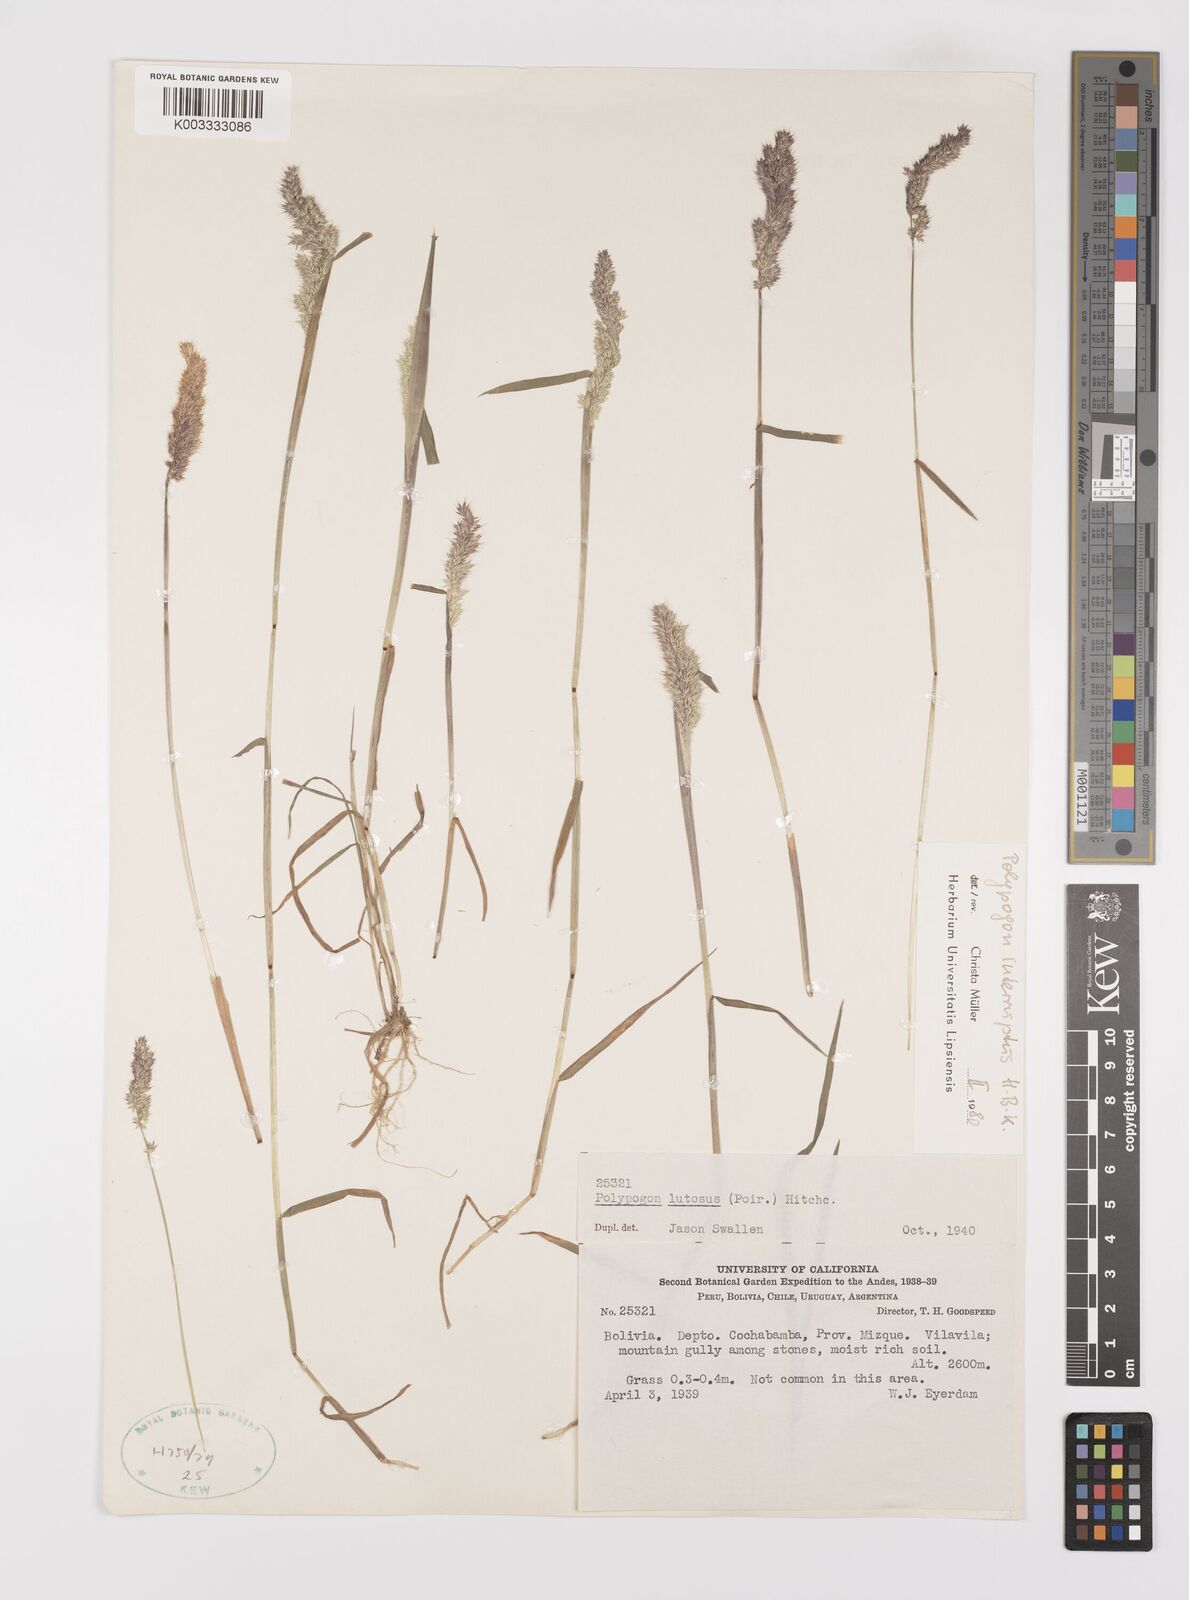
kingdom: Plantae
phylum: Tracheophyta
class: Liliopsida
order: Poales
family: Poaceae
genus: Polypogon
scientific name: Polypogon interruptus
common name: Ditch polypogon
